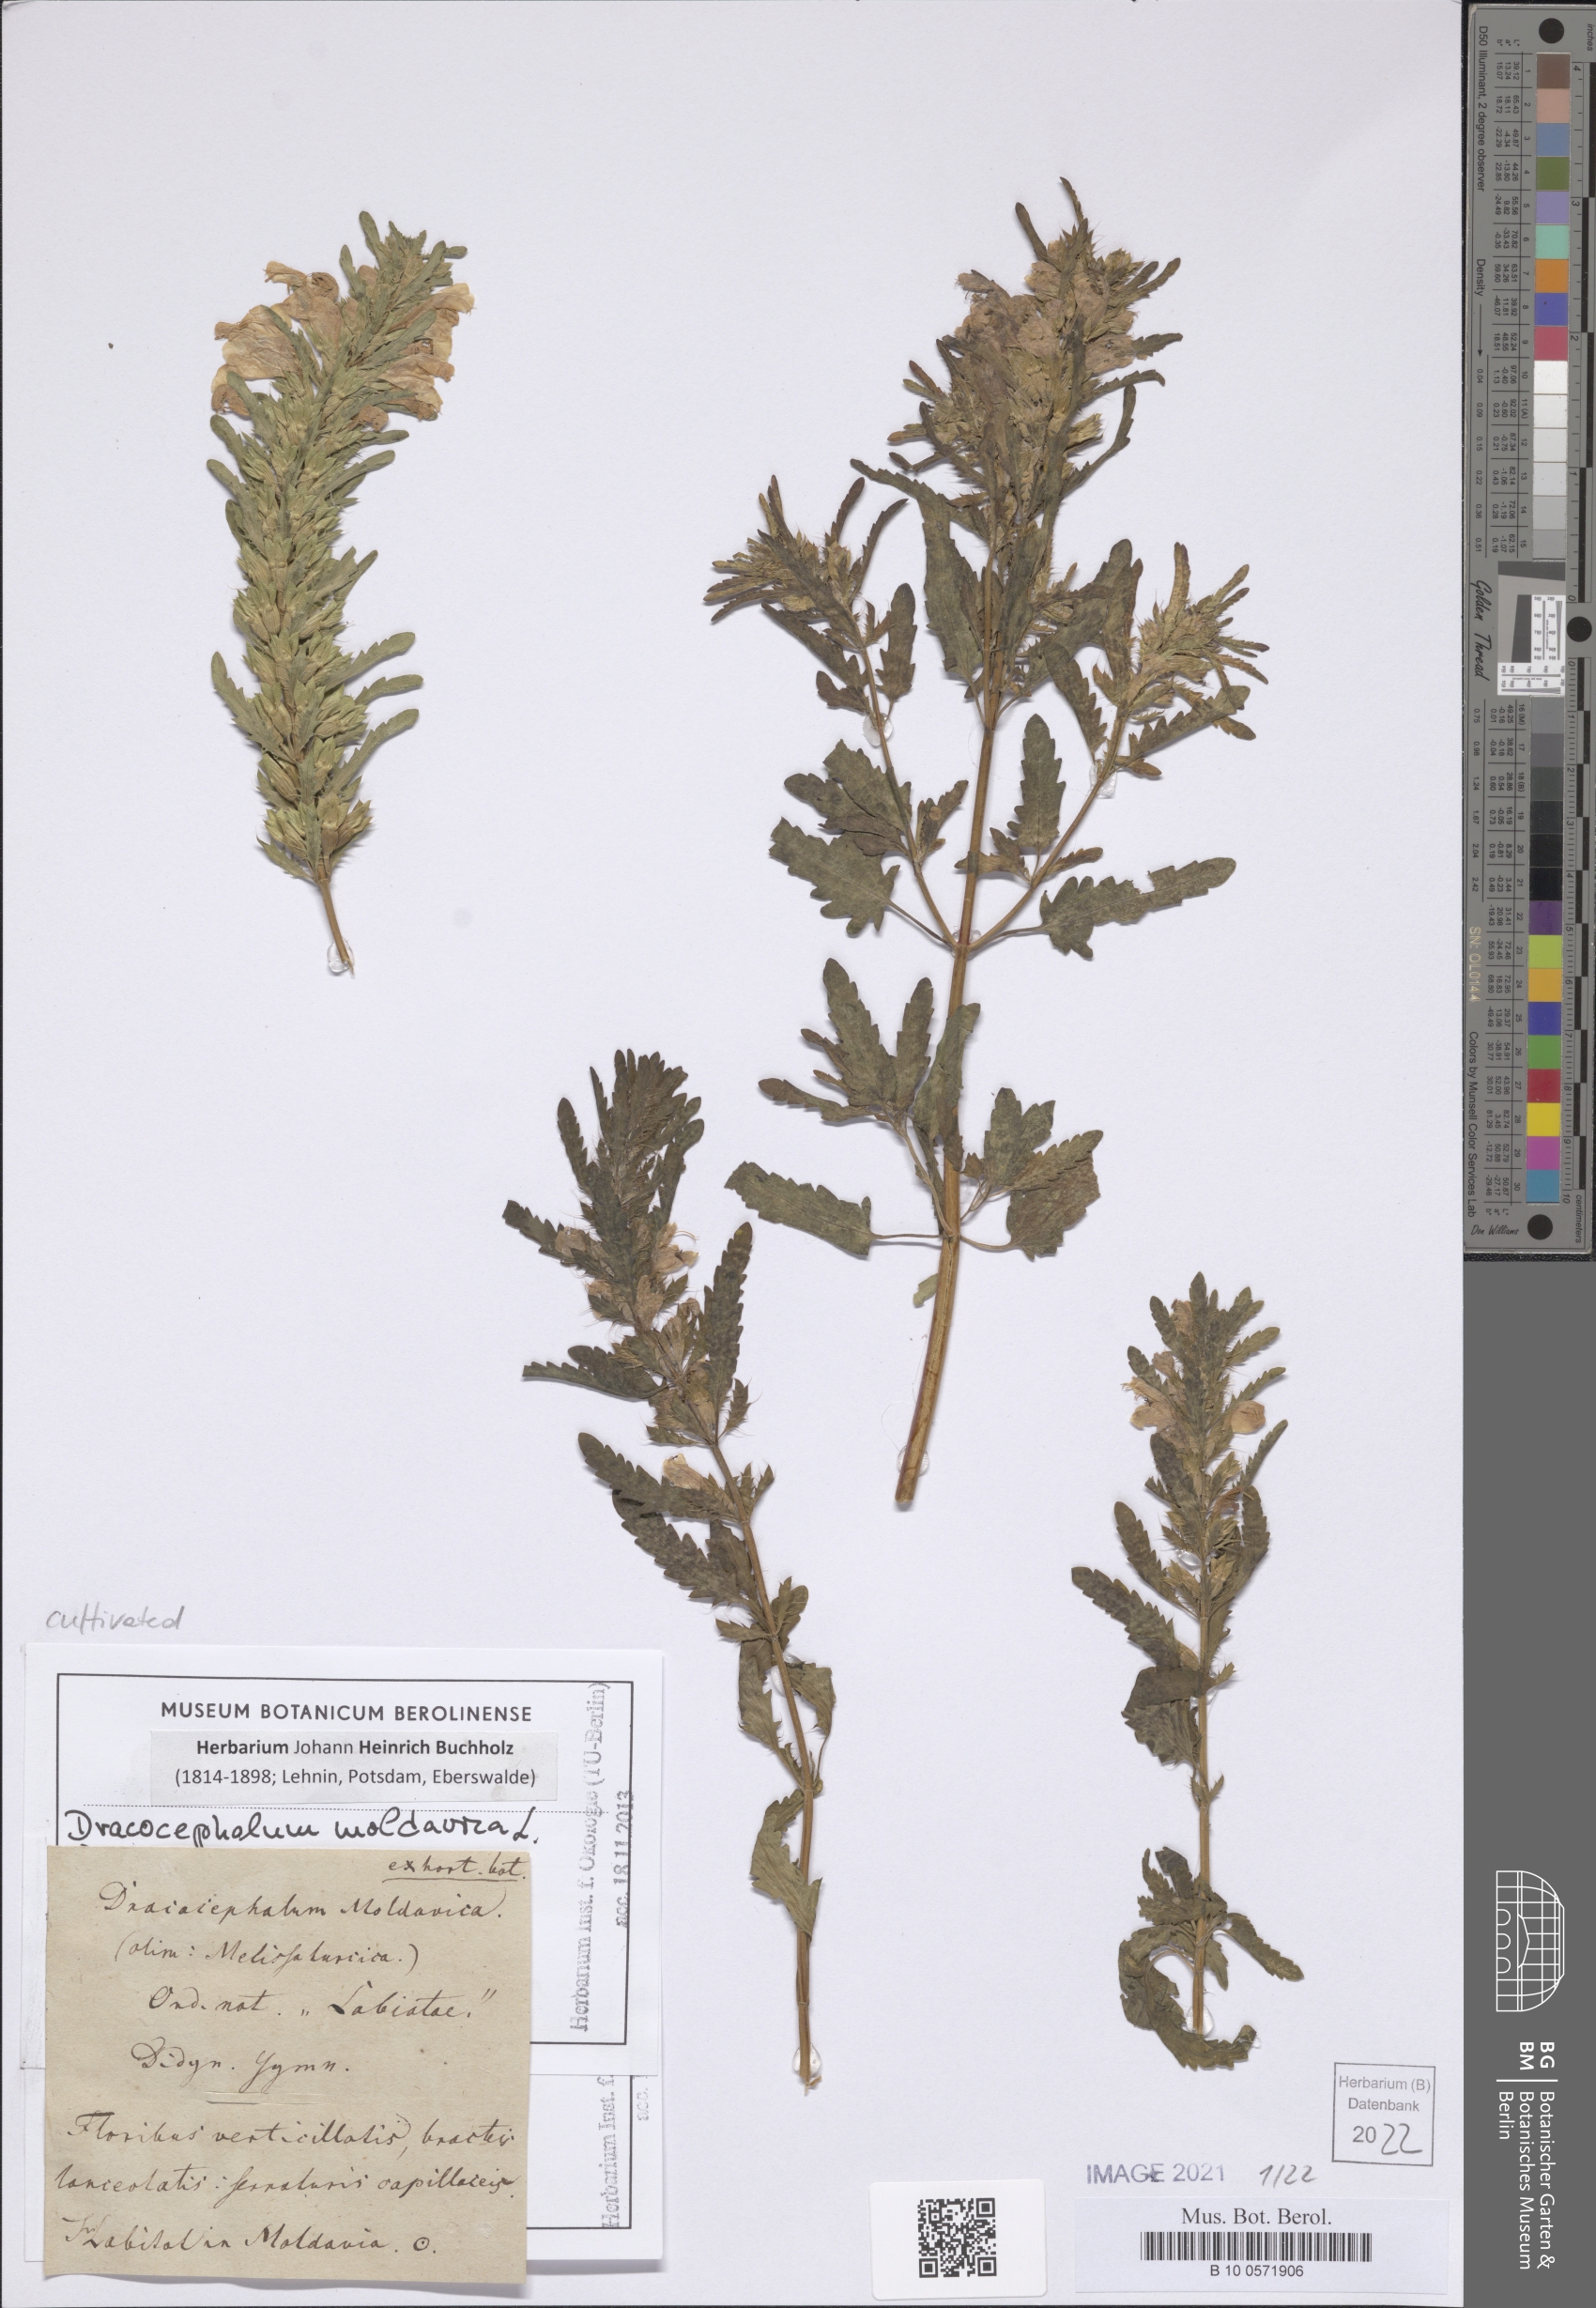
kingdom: Plantae
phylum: Tracheophyta
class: Magnoliopsida
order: Lamiales
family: Lamiaceae
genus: Dracocephalum
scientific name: Dracocephalum moldavica
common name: Moldavian dragonhead
